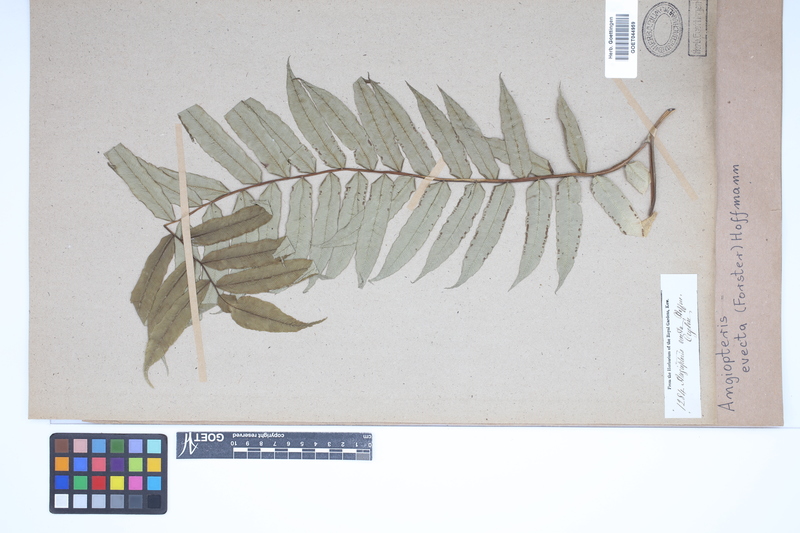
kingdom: Plantae
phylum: Tracheophyta
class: Polypodiopsida
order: Marattiales
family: Marattiaceae
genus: Angiopteris
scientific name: Angiopteris evecta
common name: Mule's-foot fern
